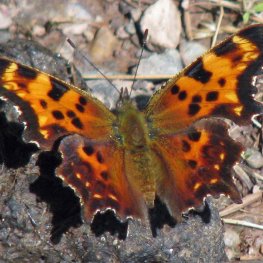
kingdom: Animalia
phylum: Arthropoda
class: Insecta
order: Lepidoptera
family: Nymphalidae
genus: Polygonia
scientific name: Polygonia faunus
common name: Green Comma
